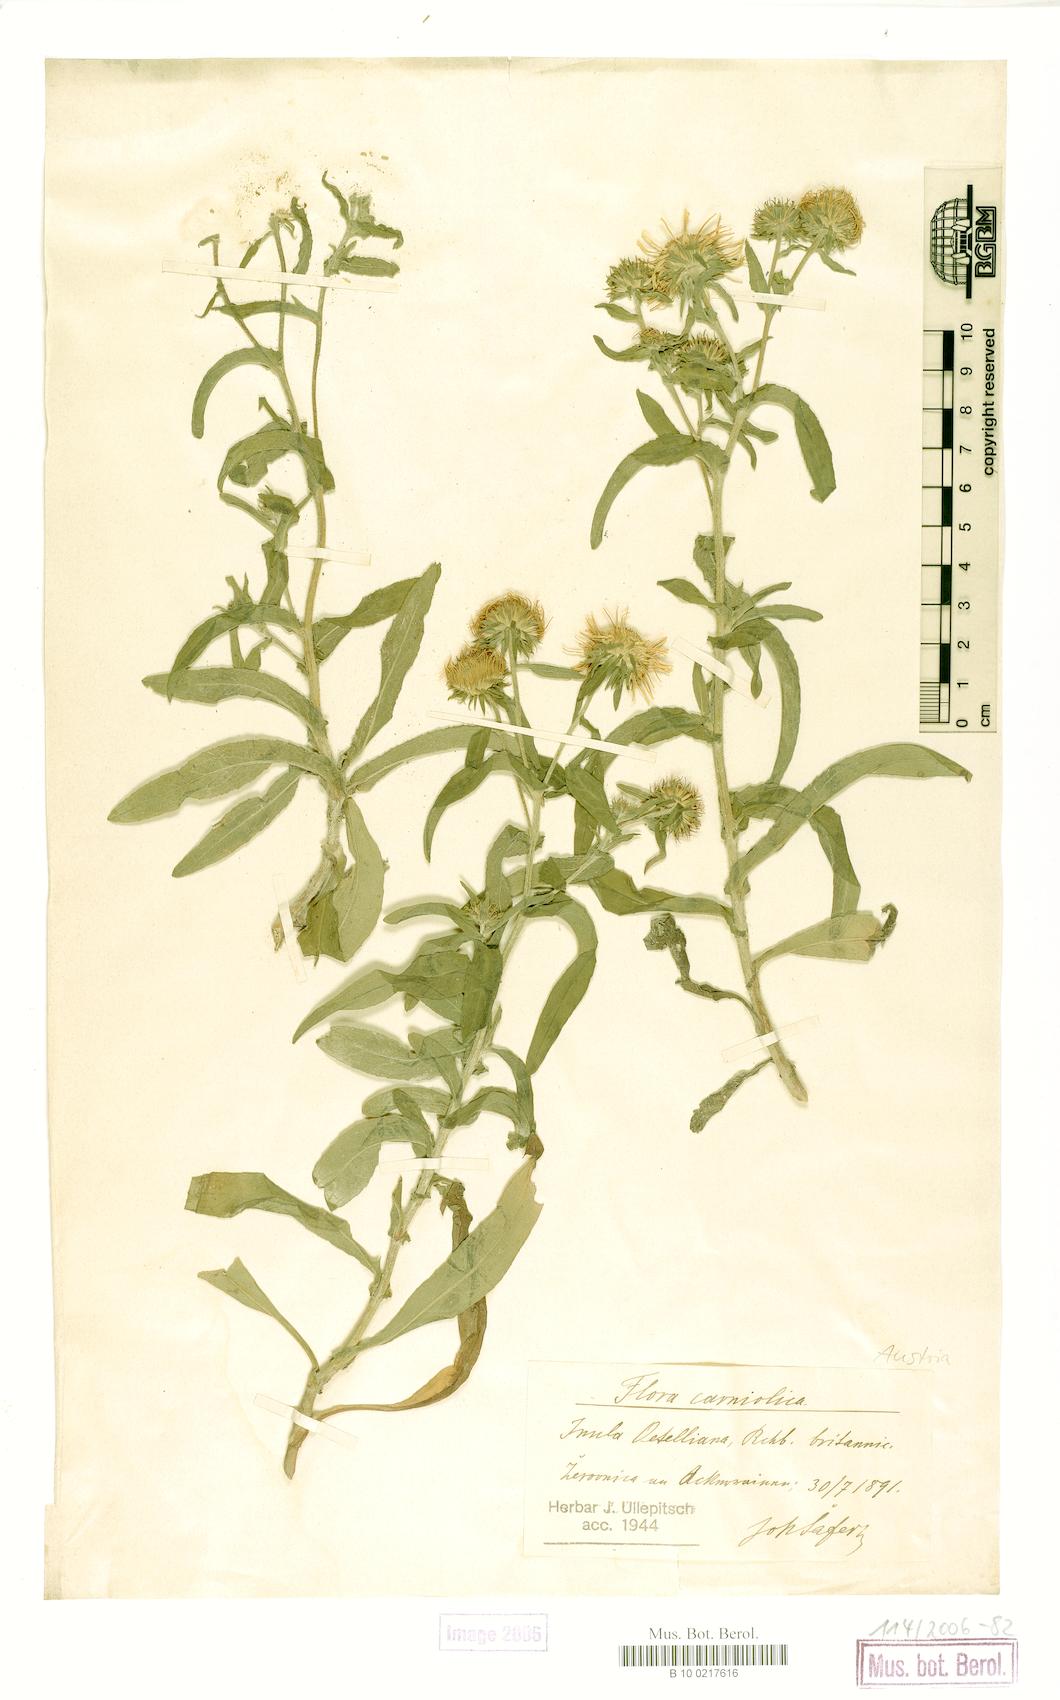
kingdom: Plantae
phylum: Tracheophyta
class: Magnoliopsida
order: Asterales
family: Asteraceae
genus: Pentanema
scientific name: Pentanema britannicum
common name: British elecampane
